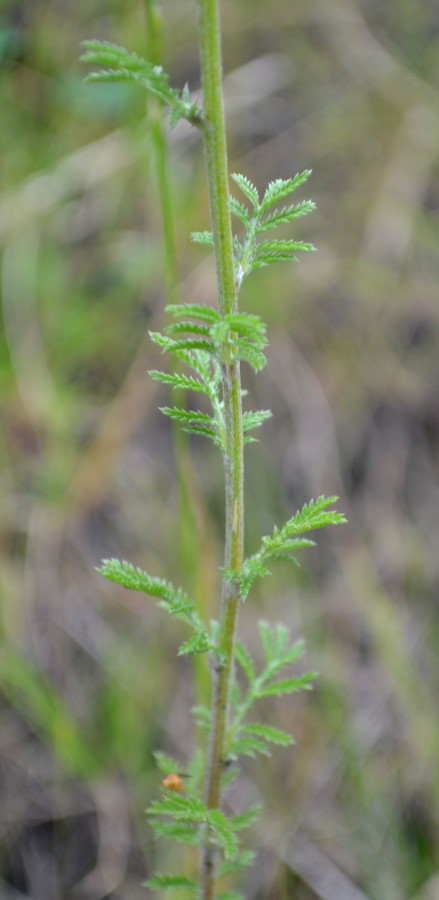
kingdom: Plantae
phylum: Tracheophyta
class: Magnoliopsida
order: Asterales
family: Asteraceae
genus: Cota
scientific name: Cota tinctoria
